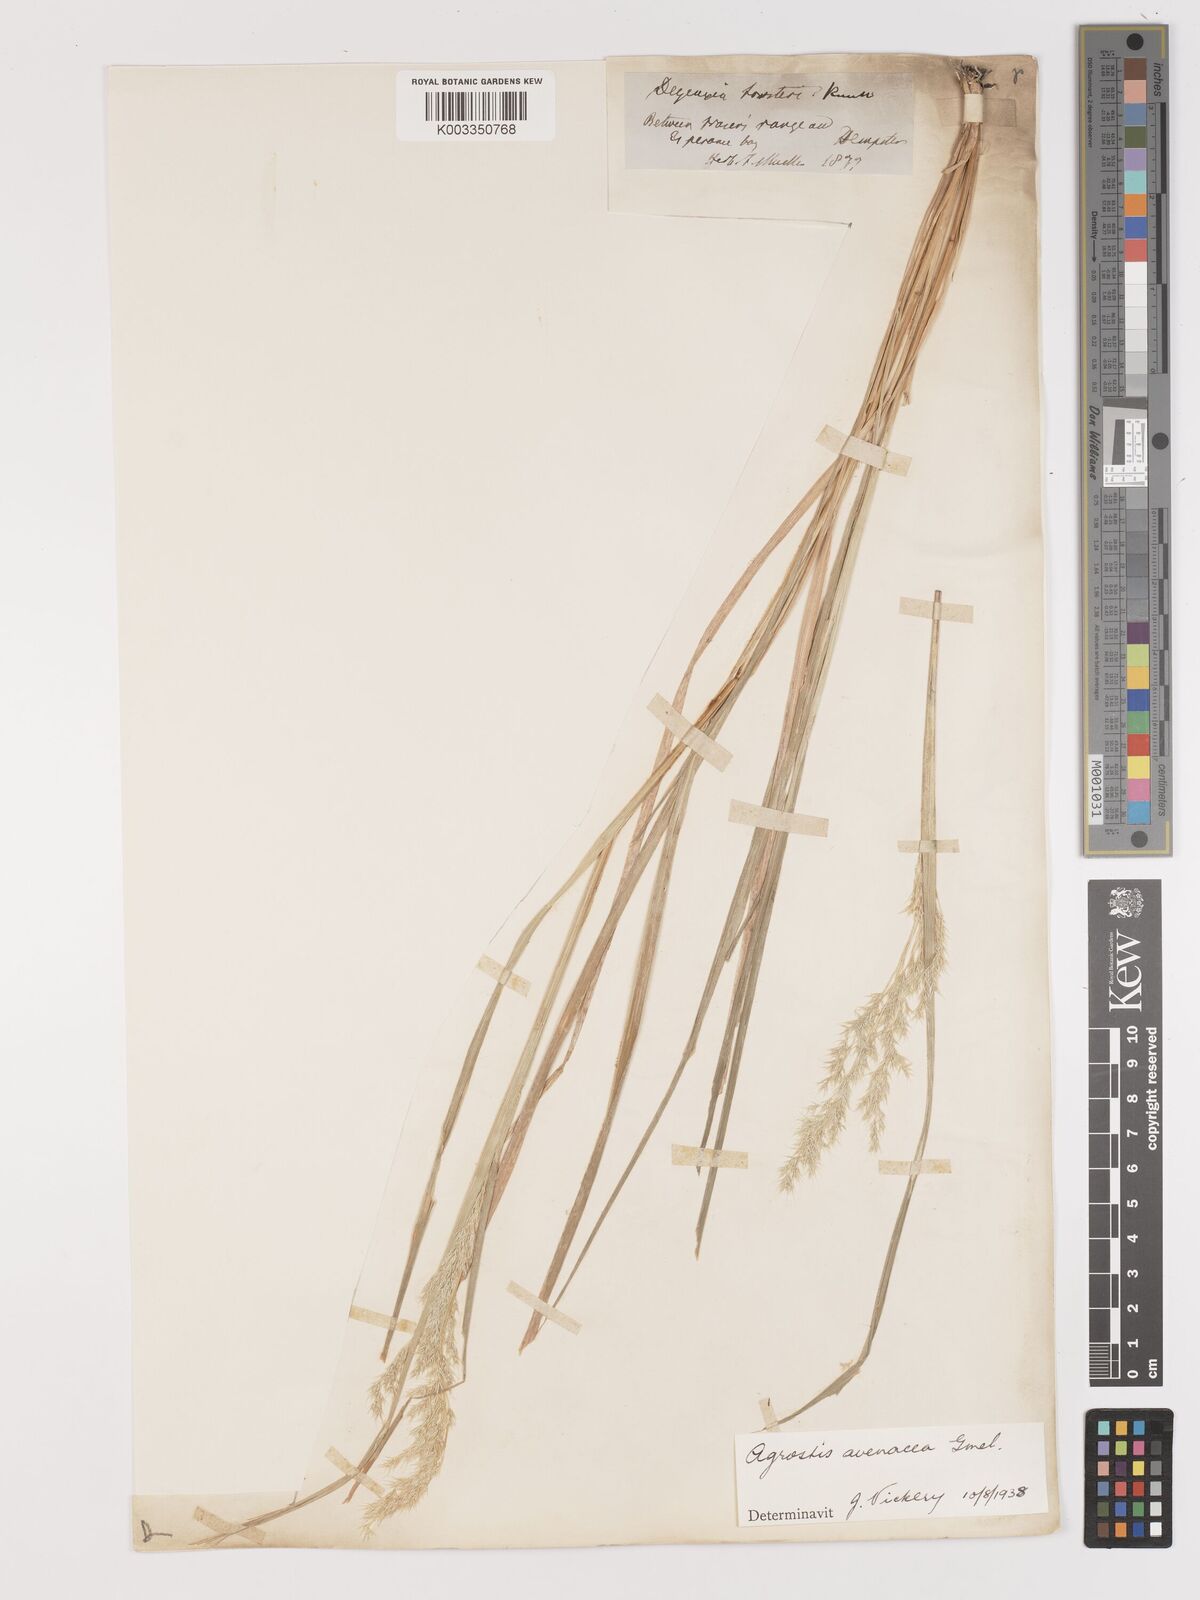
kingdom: Plantae
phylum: Tracheophyta
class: Liliopsida
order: Poales
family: Poaceae
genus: Lachnagrostis
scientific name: Lachnagrostis filiformis
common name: Bentgrass
